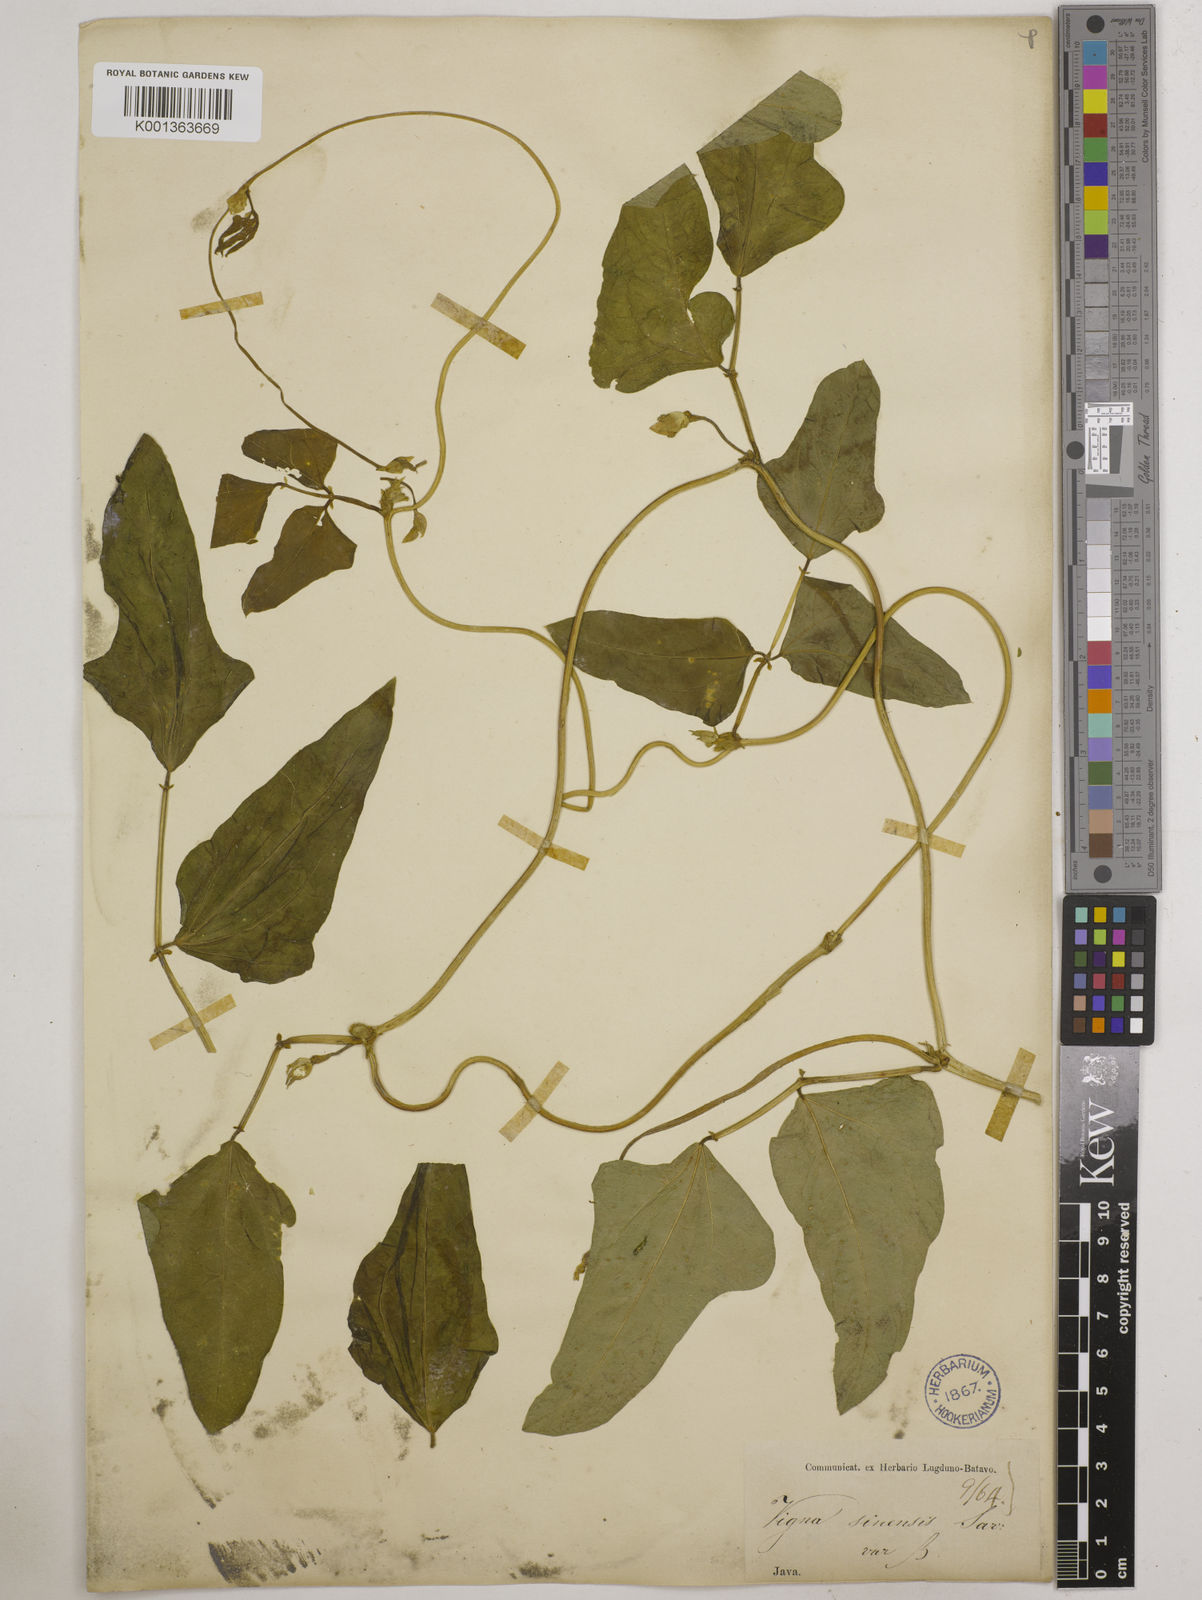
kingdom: Plantae
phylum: Tracheophyta
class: Magnoliopsida
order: Fabales
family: Fabaceae
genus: Vigna
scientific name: Vigna unguiculata
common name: Cowpea
